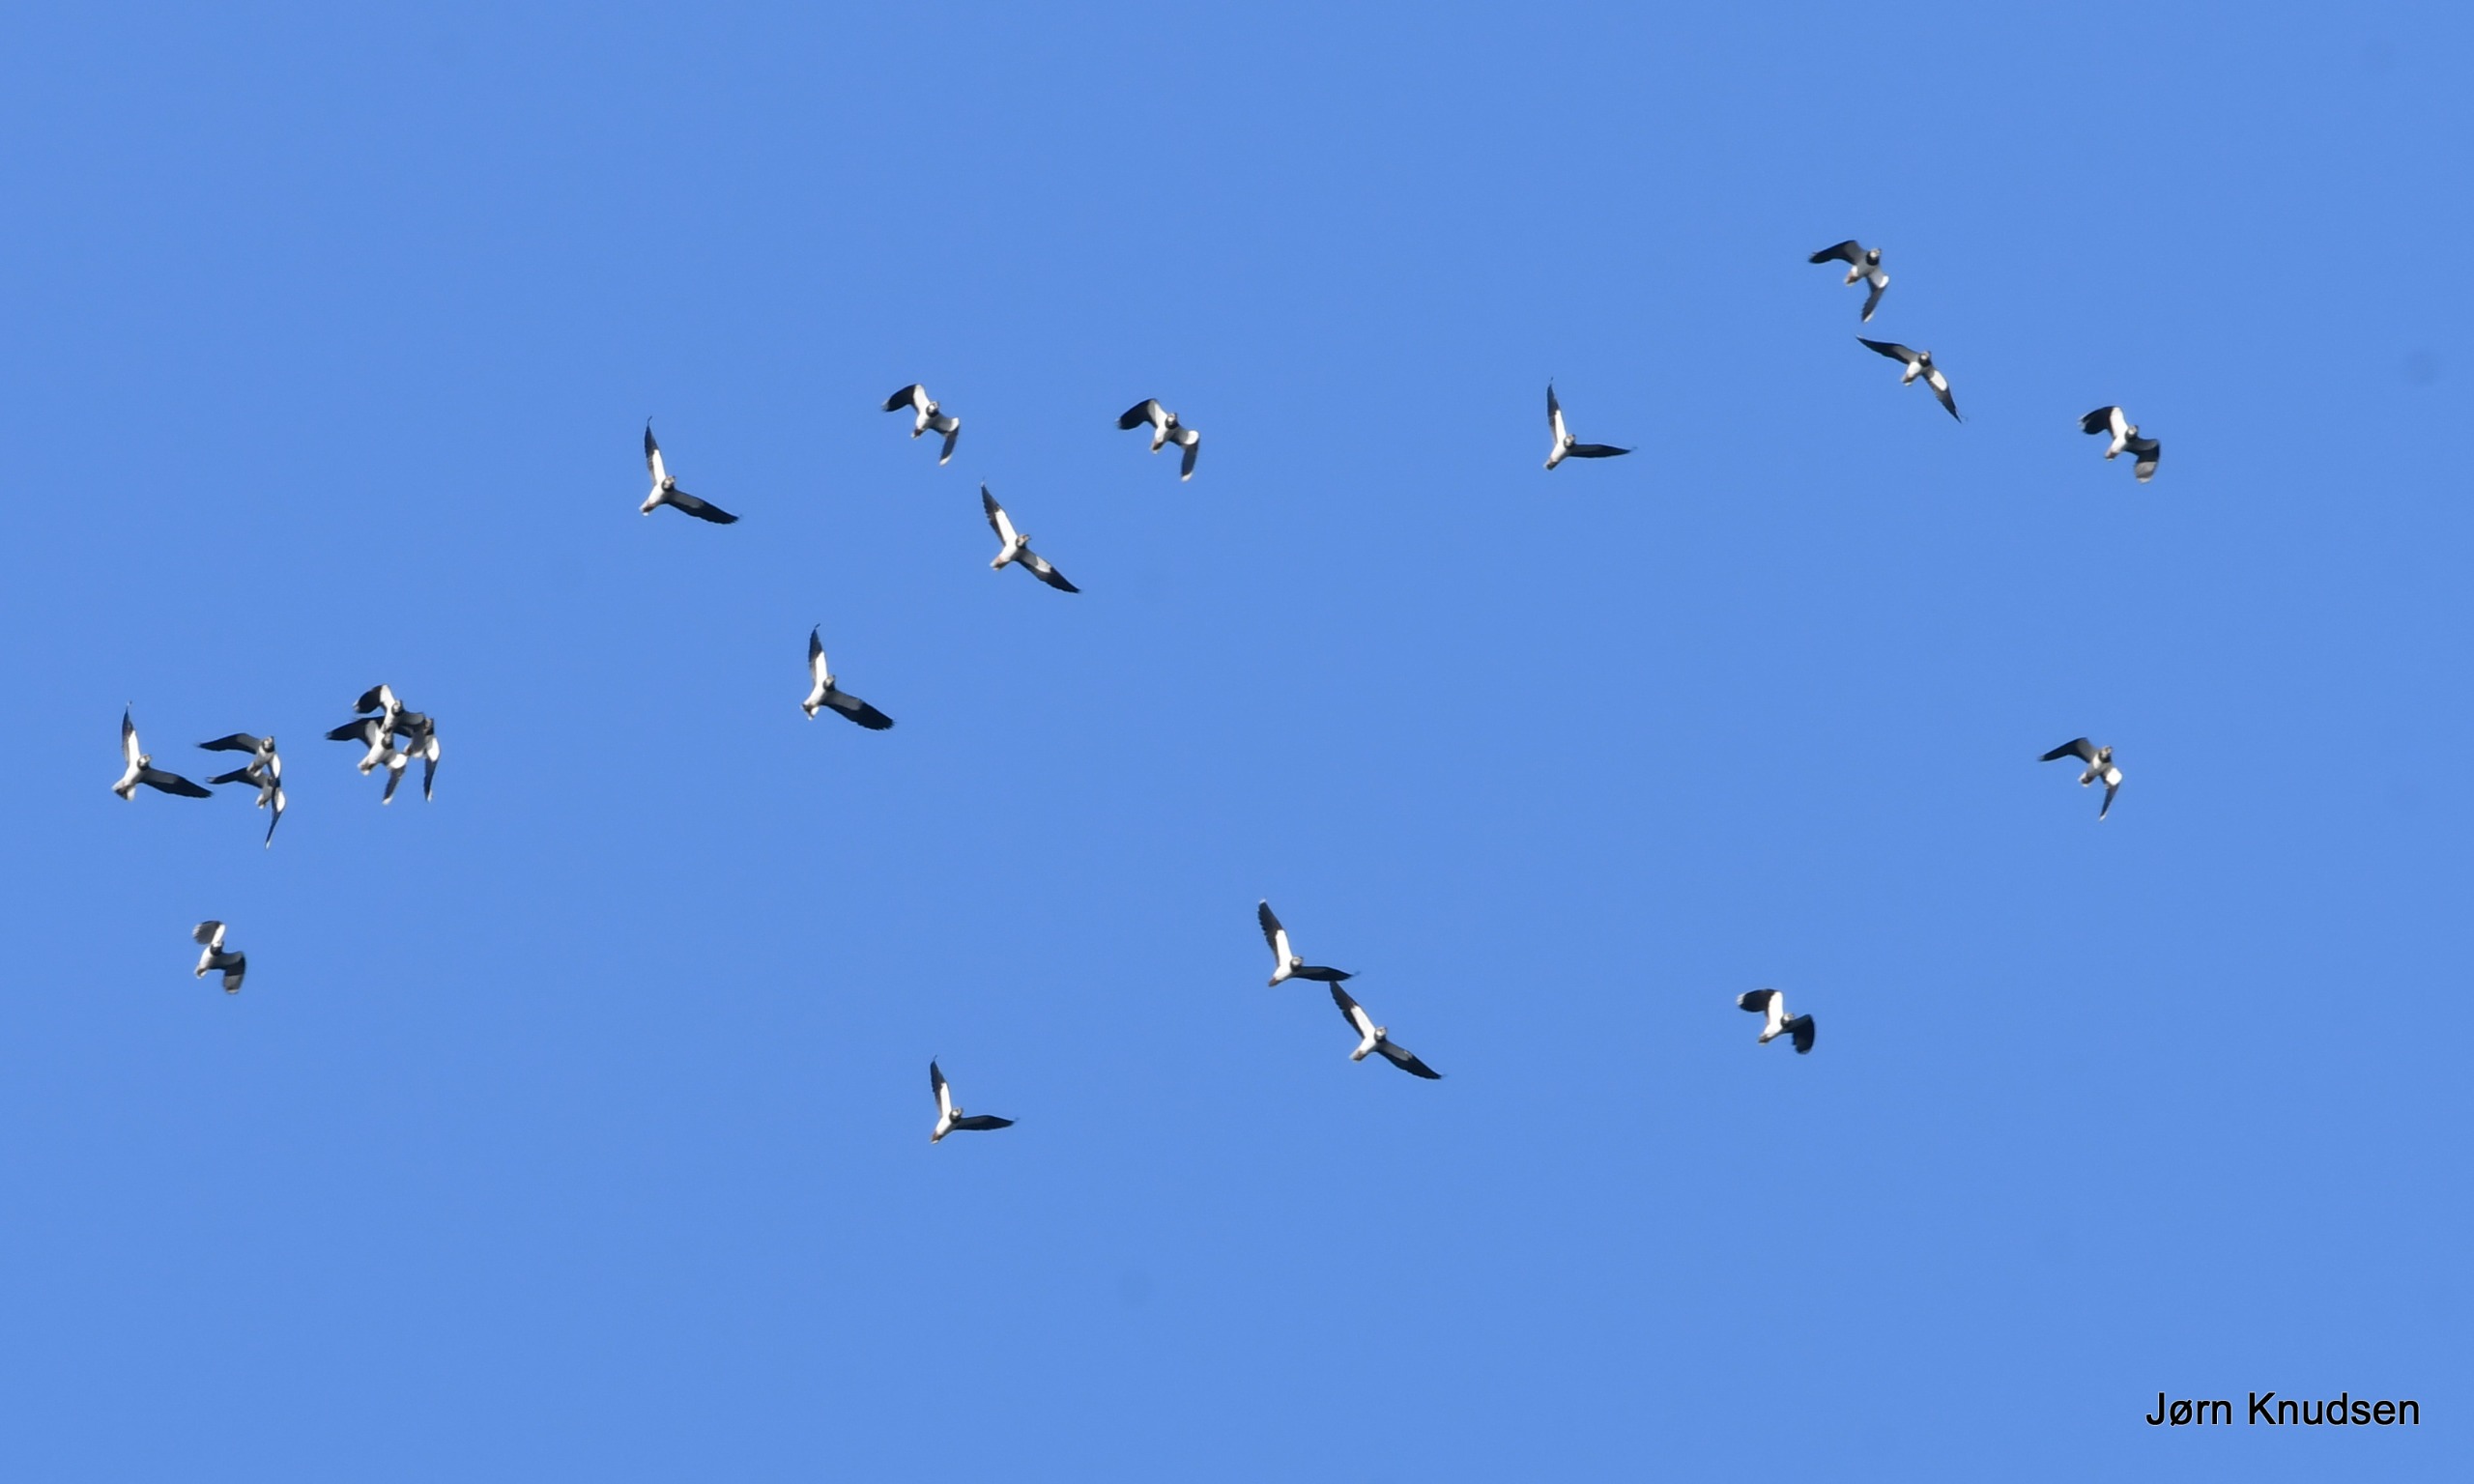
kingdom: Animalia
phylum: Chordata
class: Aves
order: Charadriiformes
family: Charadriidae
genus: Vanellus
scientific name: Vanellus vanellus
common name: Vibe
